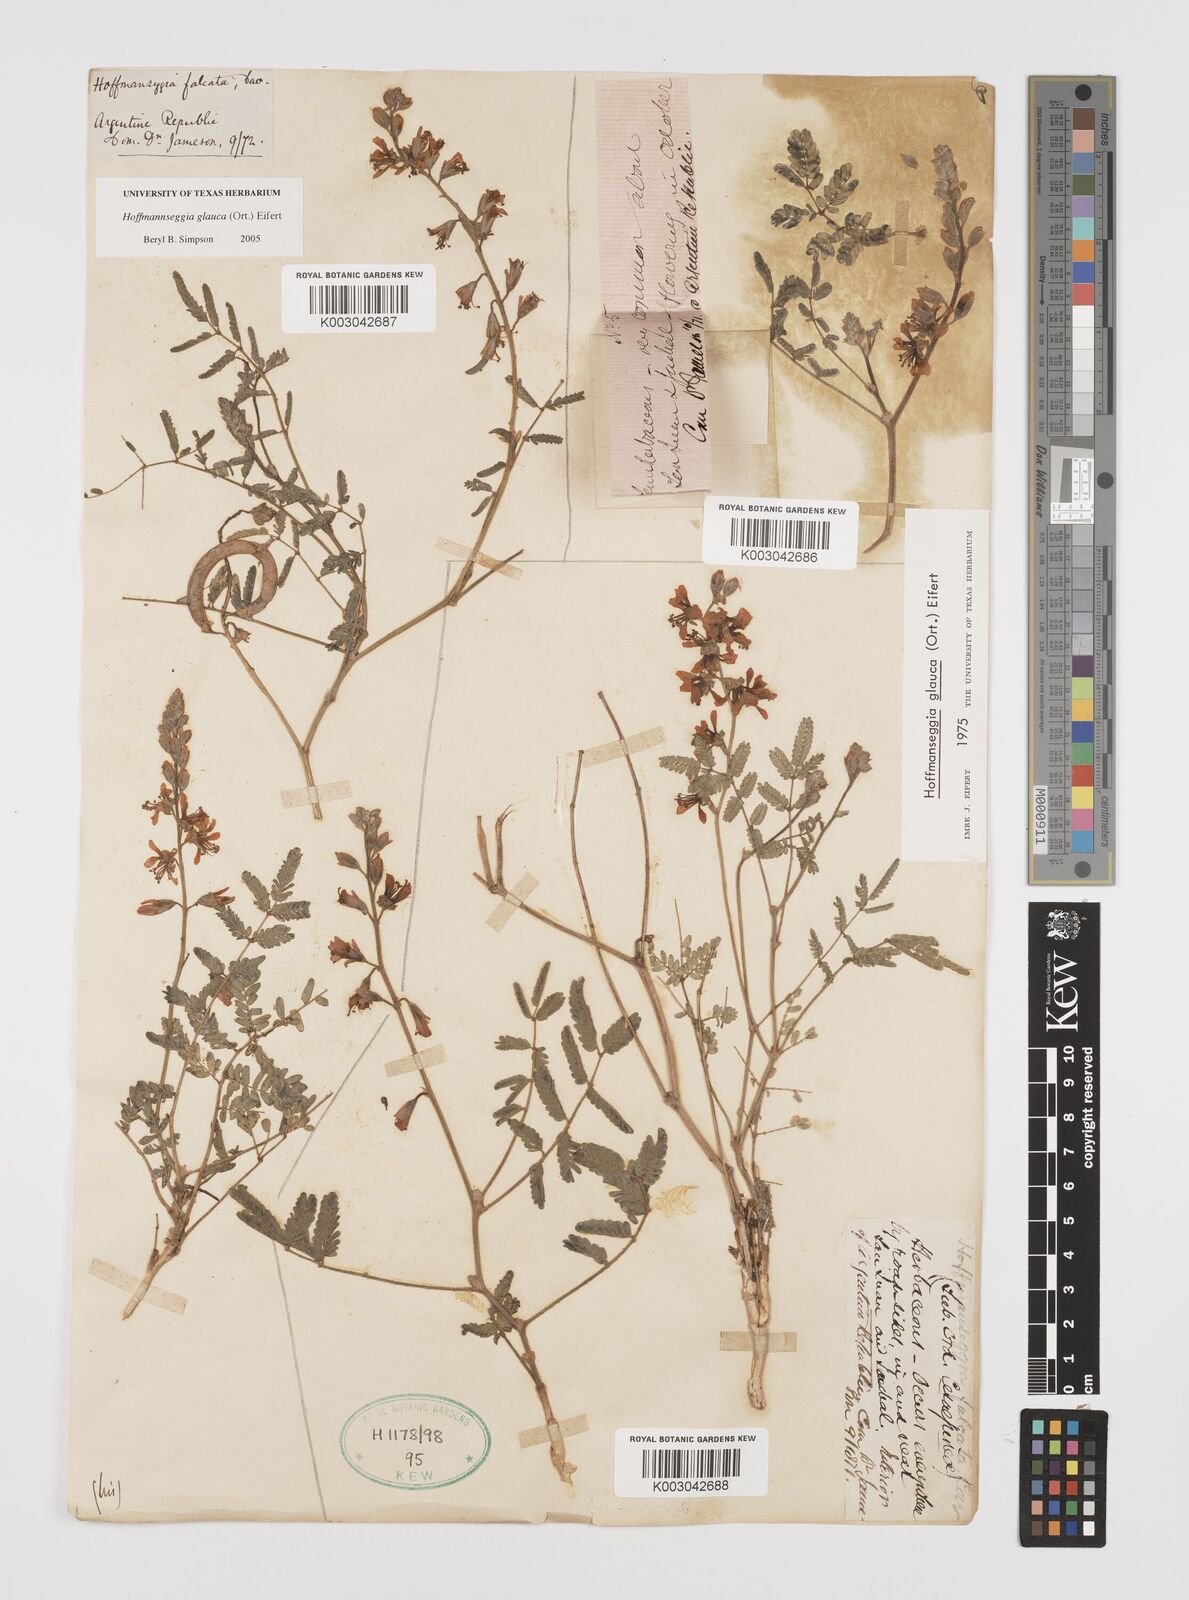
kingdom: Plantae
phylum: Tracheophyta
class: Magnoliopsida
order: Fabales
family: Fabaceae
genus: Hoffmannseggia
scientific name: Hoffmannseggia glauca
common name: Pignut
